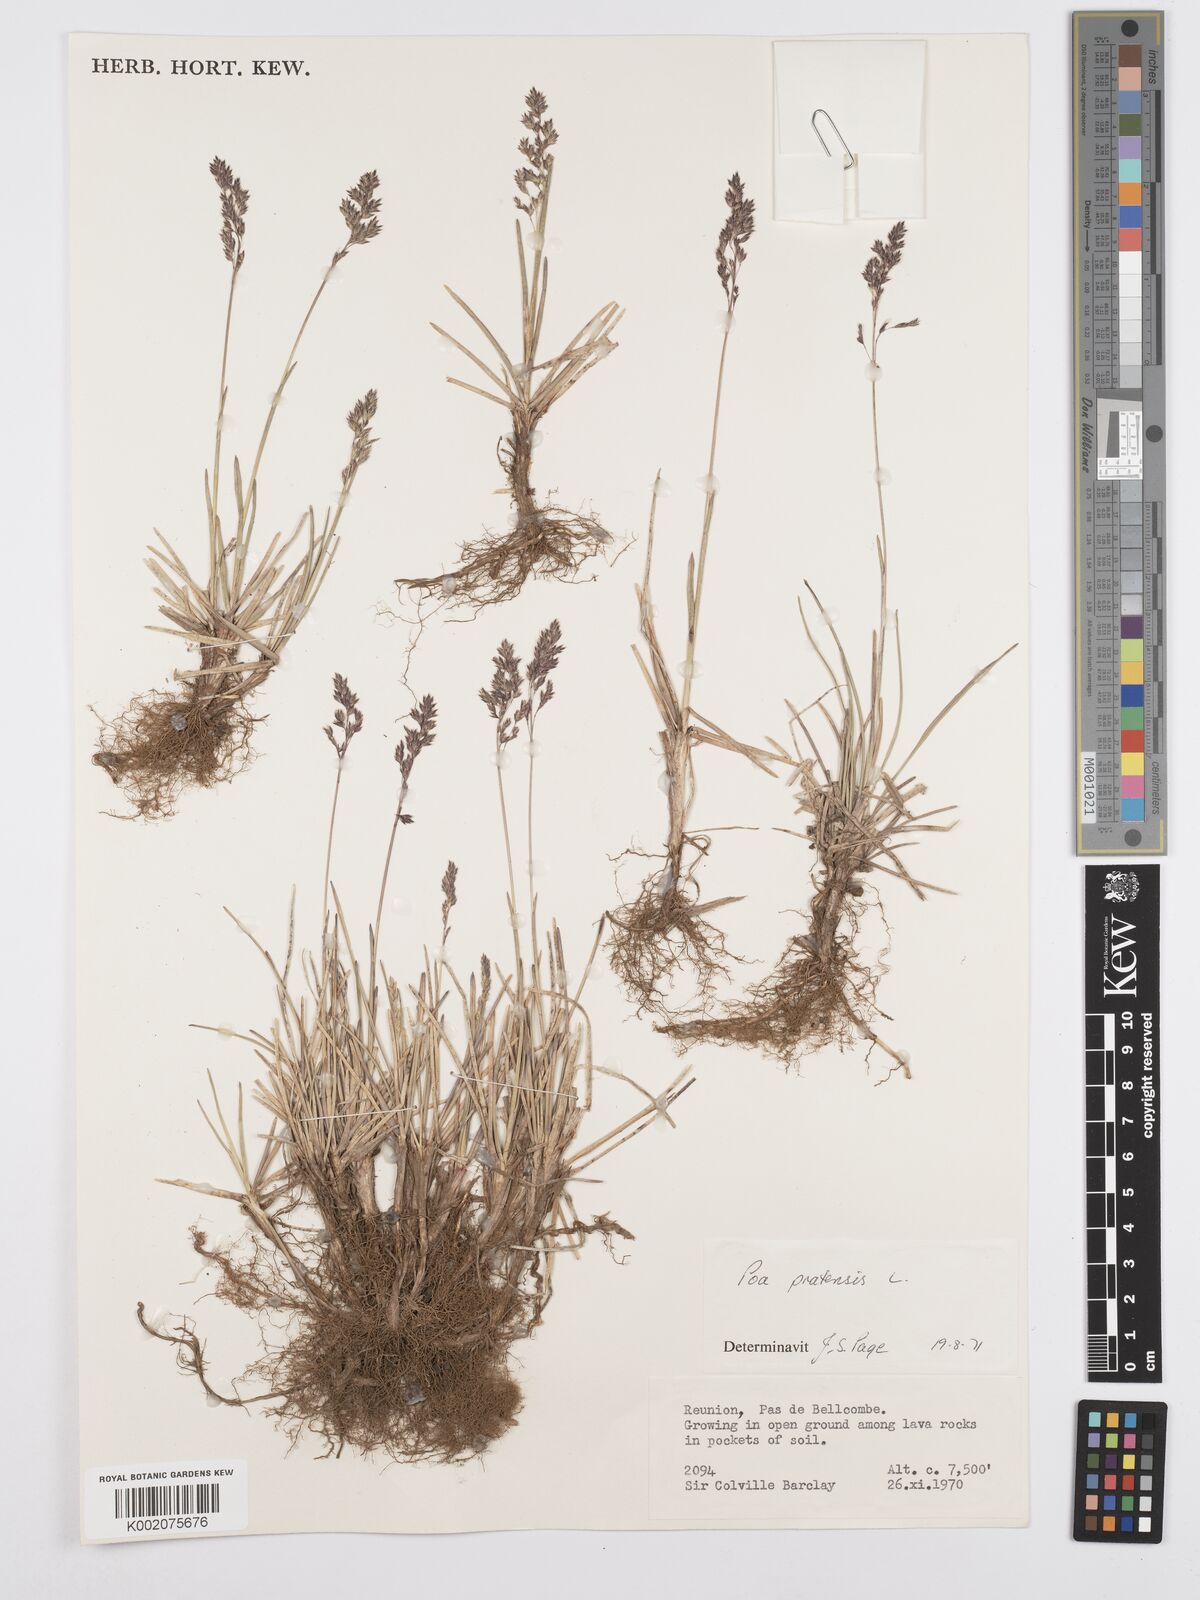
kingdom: Plantae
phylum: Tracheophyta
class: Liliopsida
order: Poales
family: Poaceae
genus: Poa
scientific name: Poa pratensis
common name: Kentucky bluegrass
